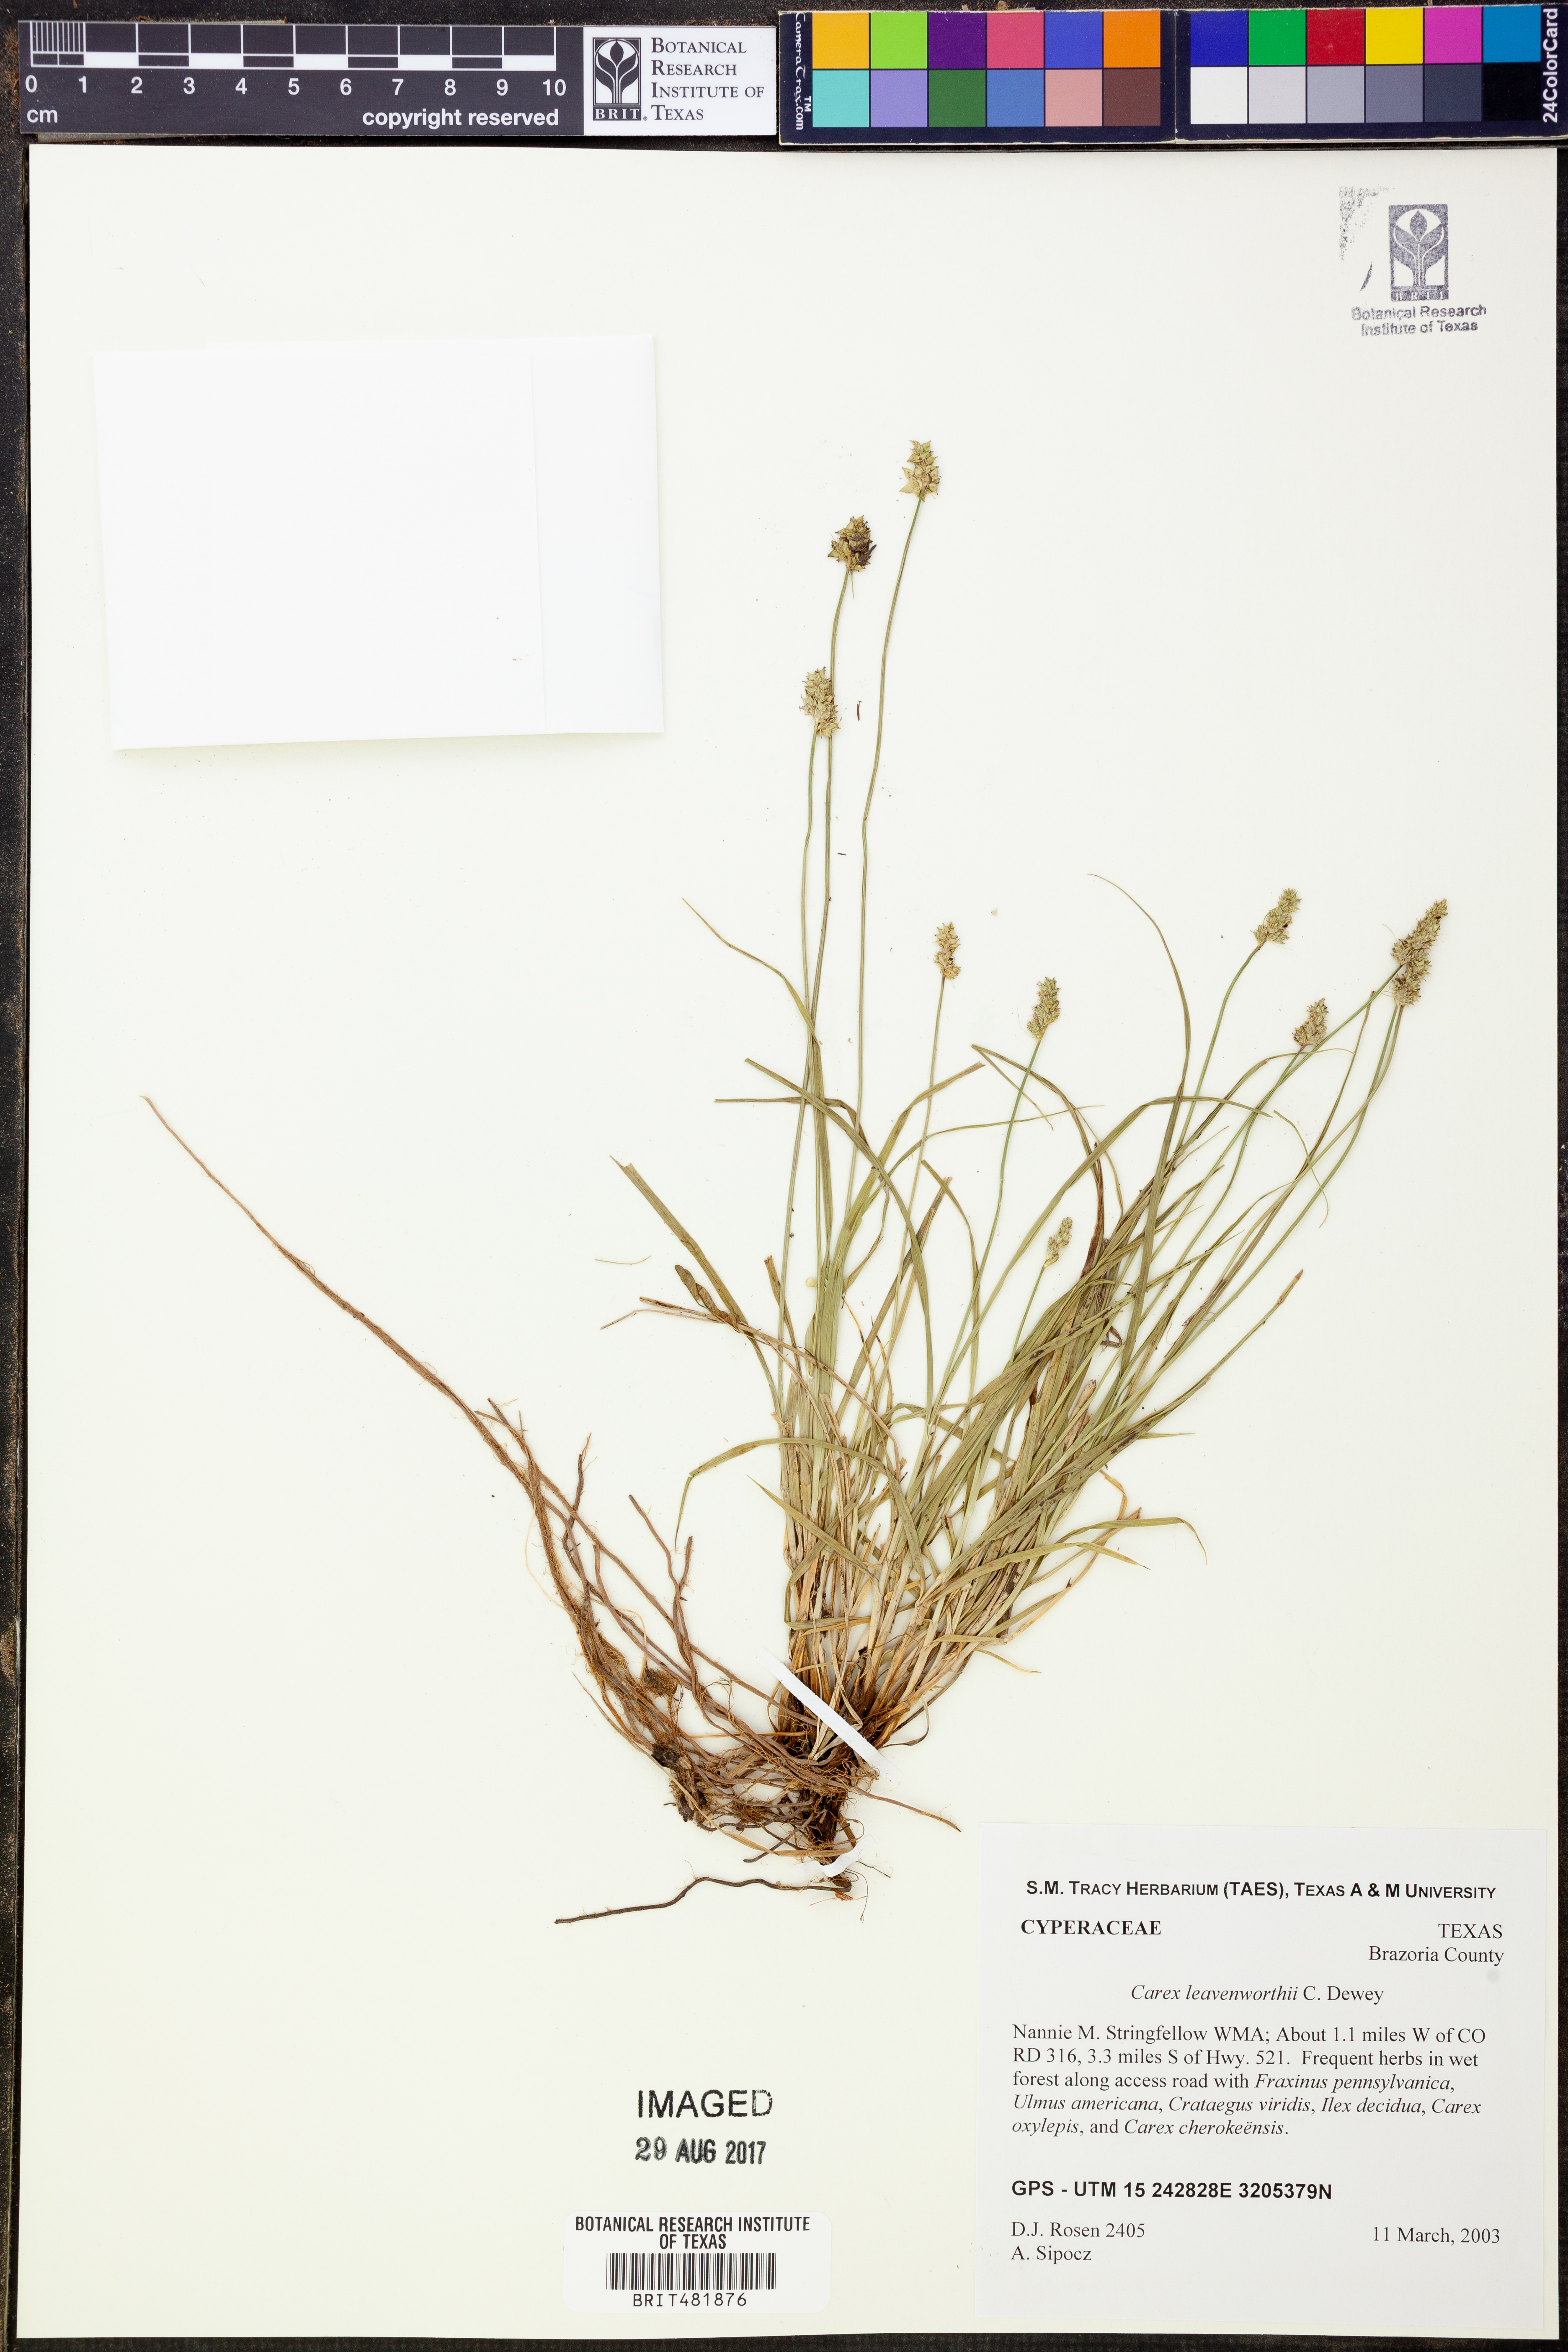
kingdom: Plantae
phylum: Tracheophyta
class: Liliopsida
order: Poales
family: Cyperaceae
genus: Carex
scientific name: Carex leavenworthii
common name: Leavenworth's bracted sedge
